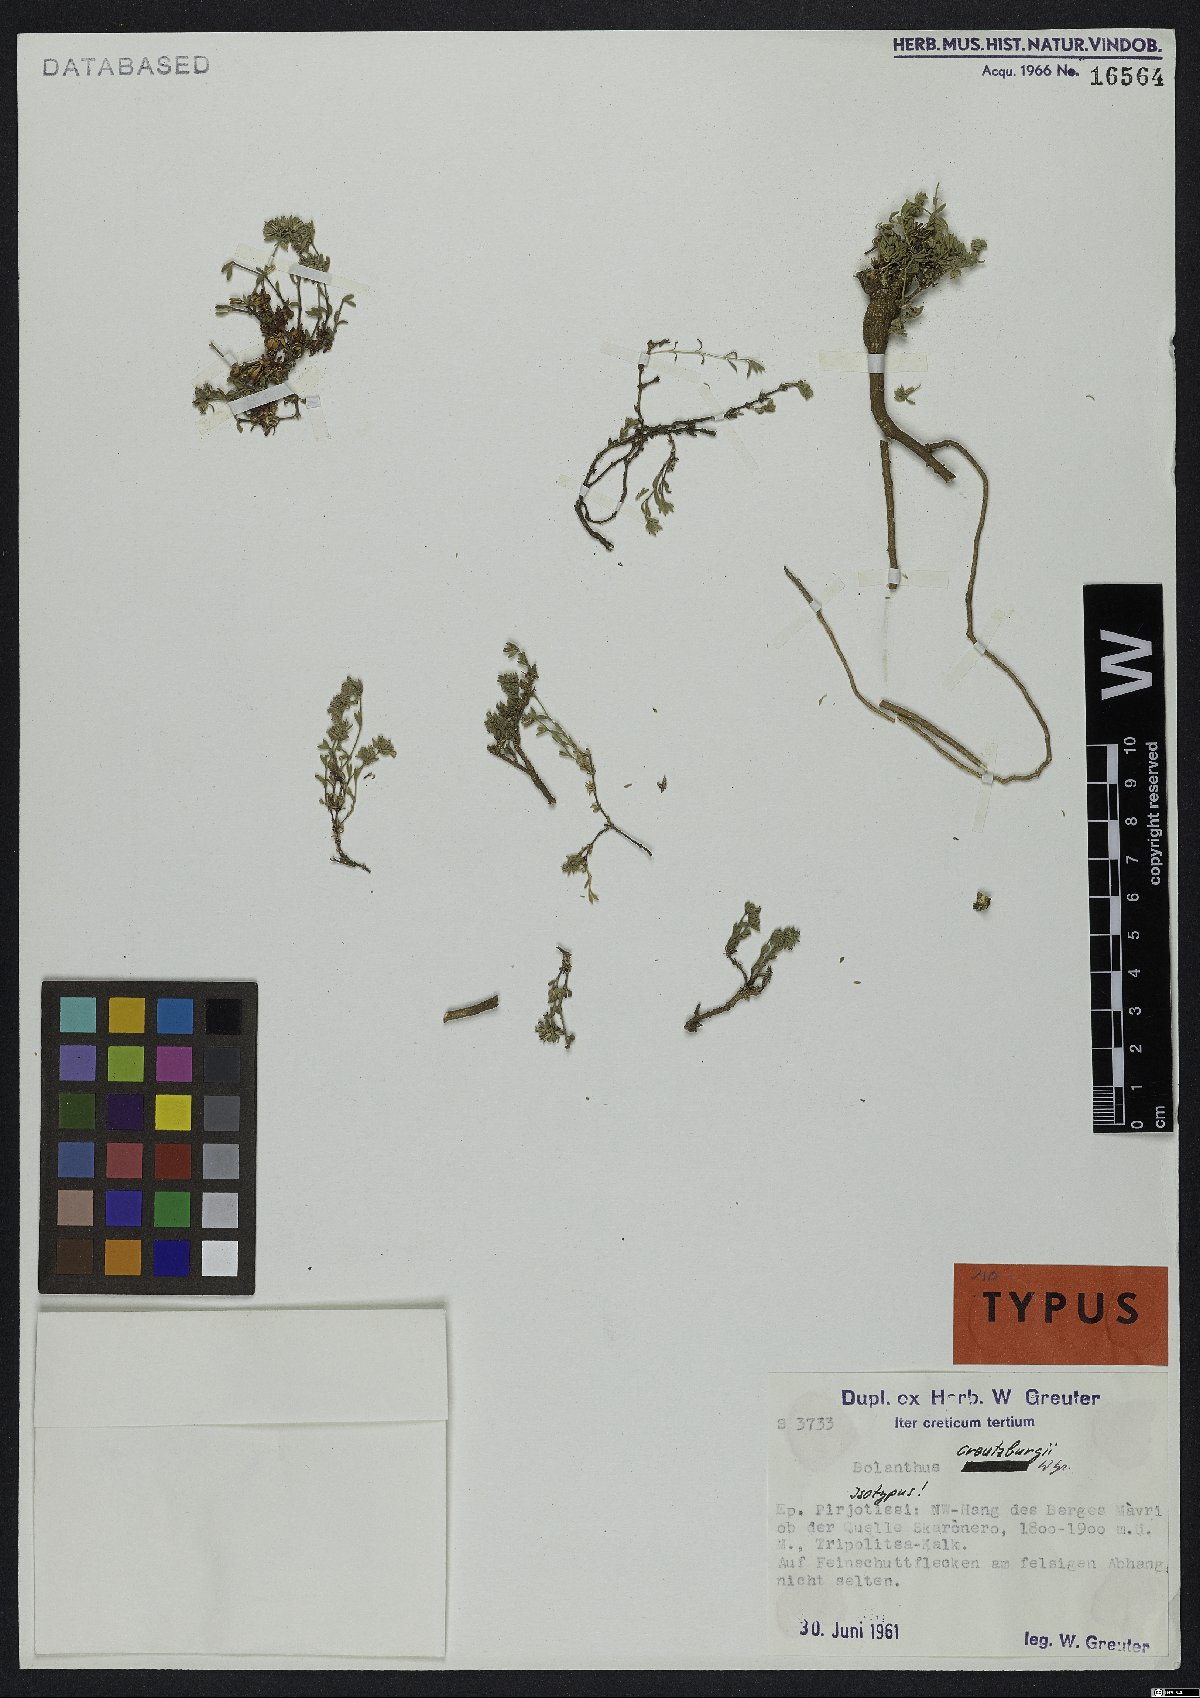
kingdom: Plantae
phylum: Tracheophyta
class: Magnoliopsida
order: Caryophyllales
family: Caryophyllaceae
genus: Graecobolanthus
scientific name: Graecobolanthus creutzburgii
